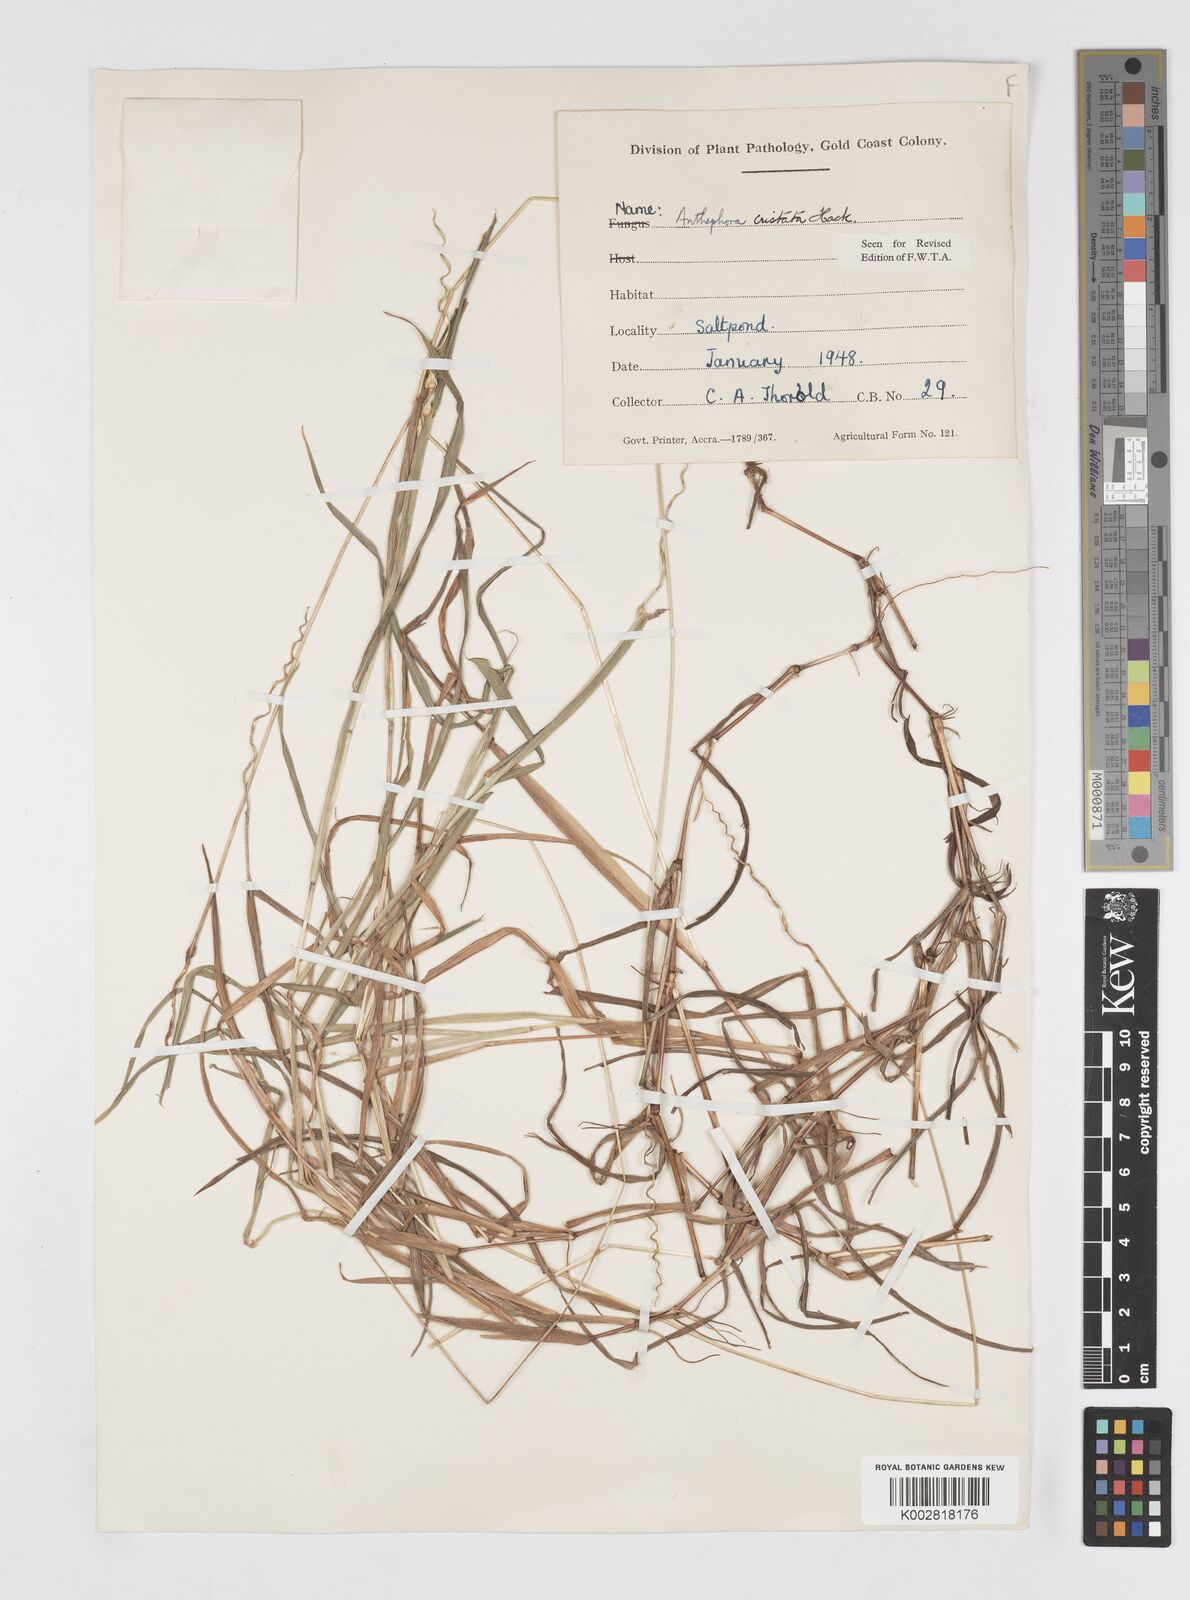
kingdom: Plantae
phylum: Tracheophyta
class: Liliopsida
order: Poales
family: Poaceae
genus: Anthephora
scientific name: Anthephora cristata
